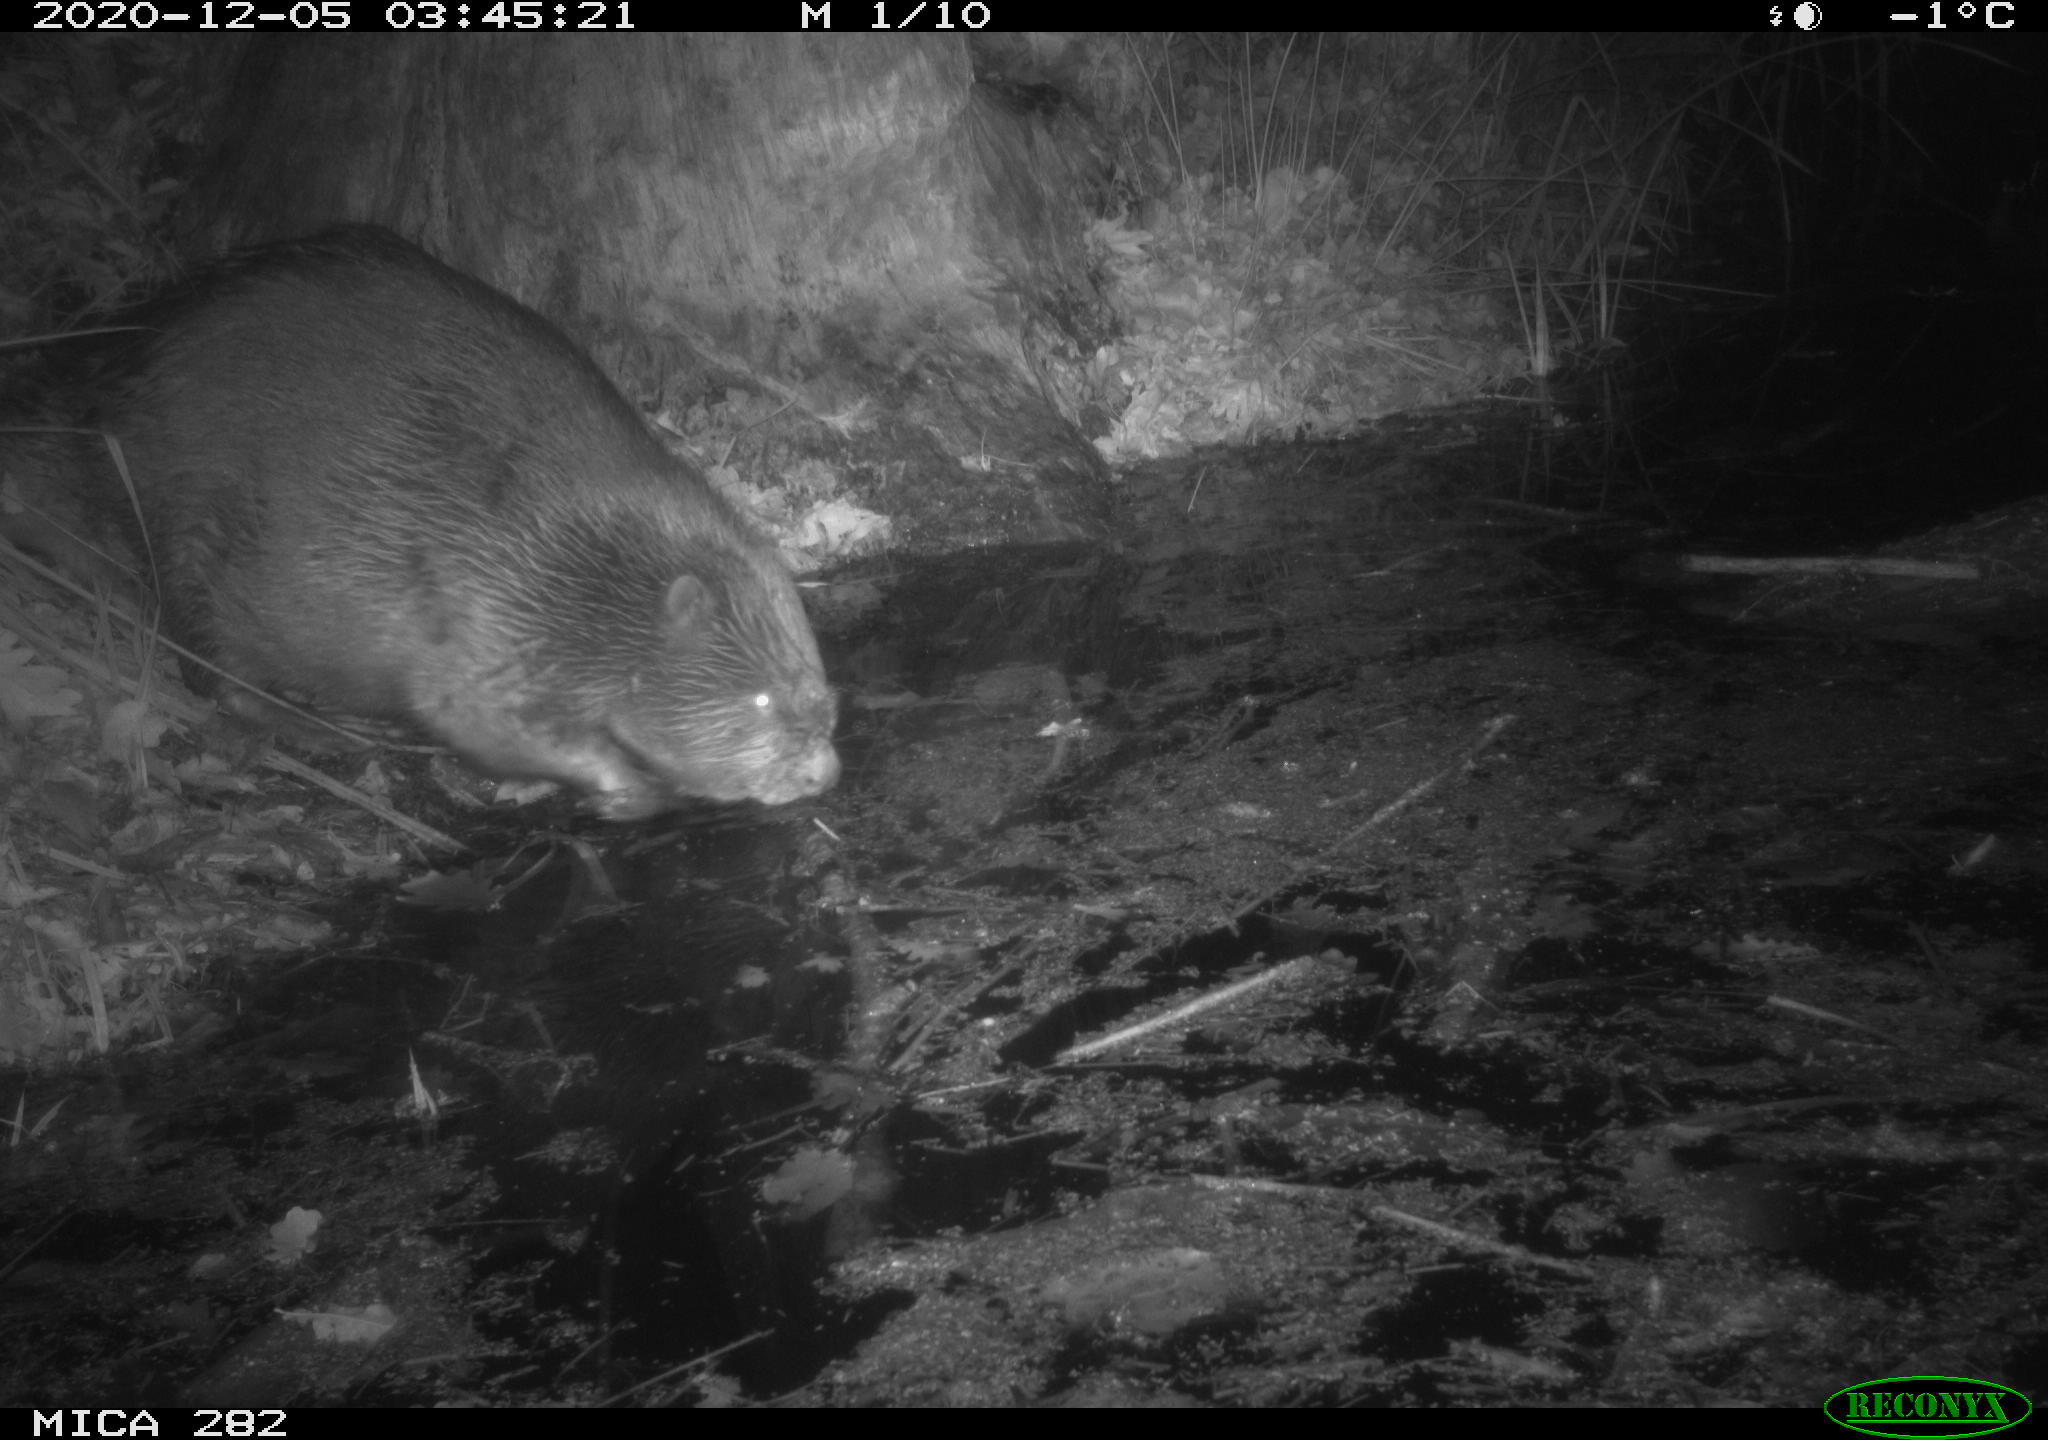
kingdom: Animalia
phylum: Chordata
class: Mammalia
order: Rodentia
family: Castoridae
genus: Castor
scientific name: Castor fiber
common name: Eurasian beaver
